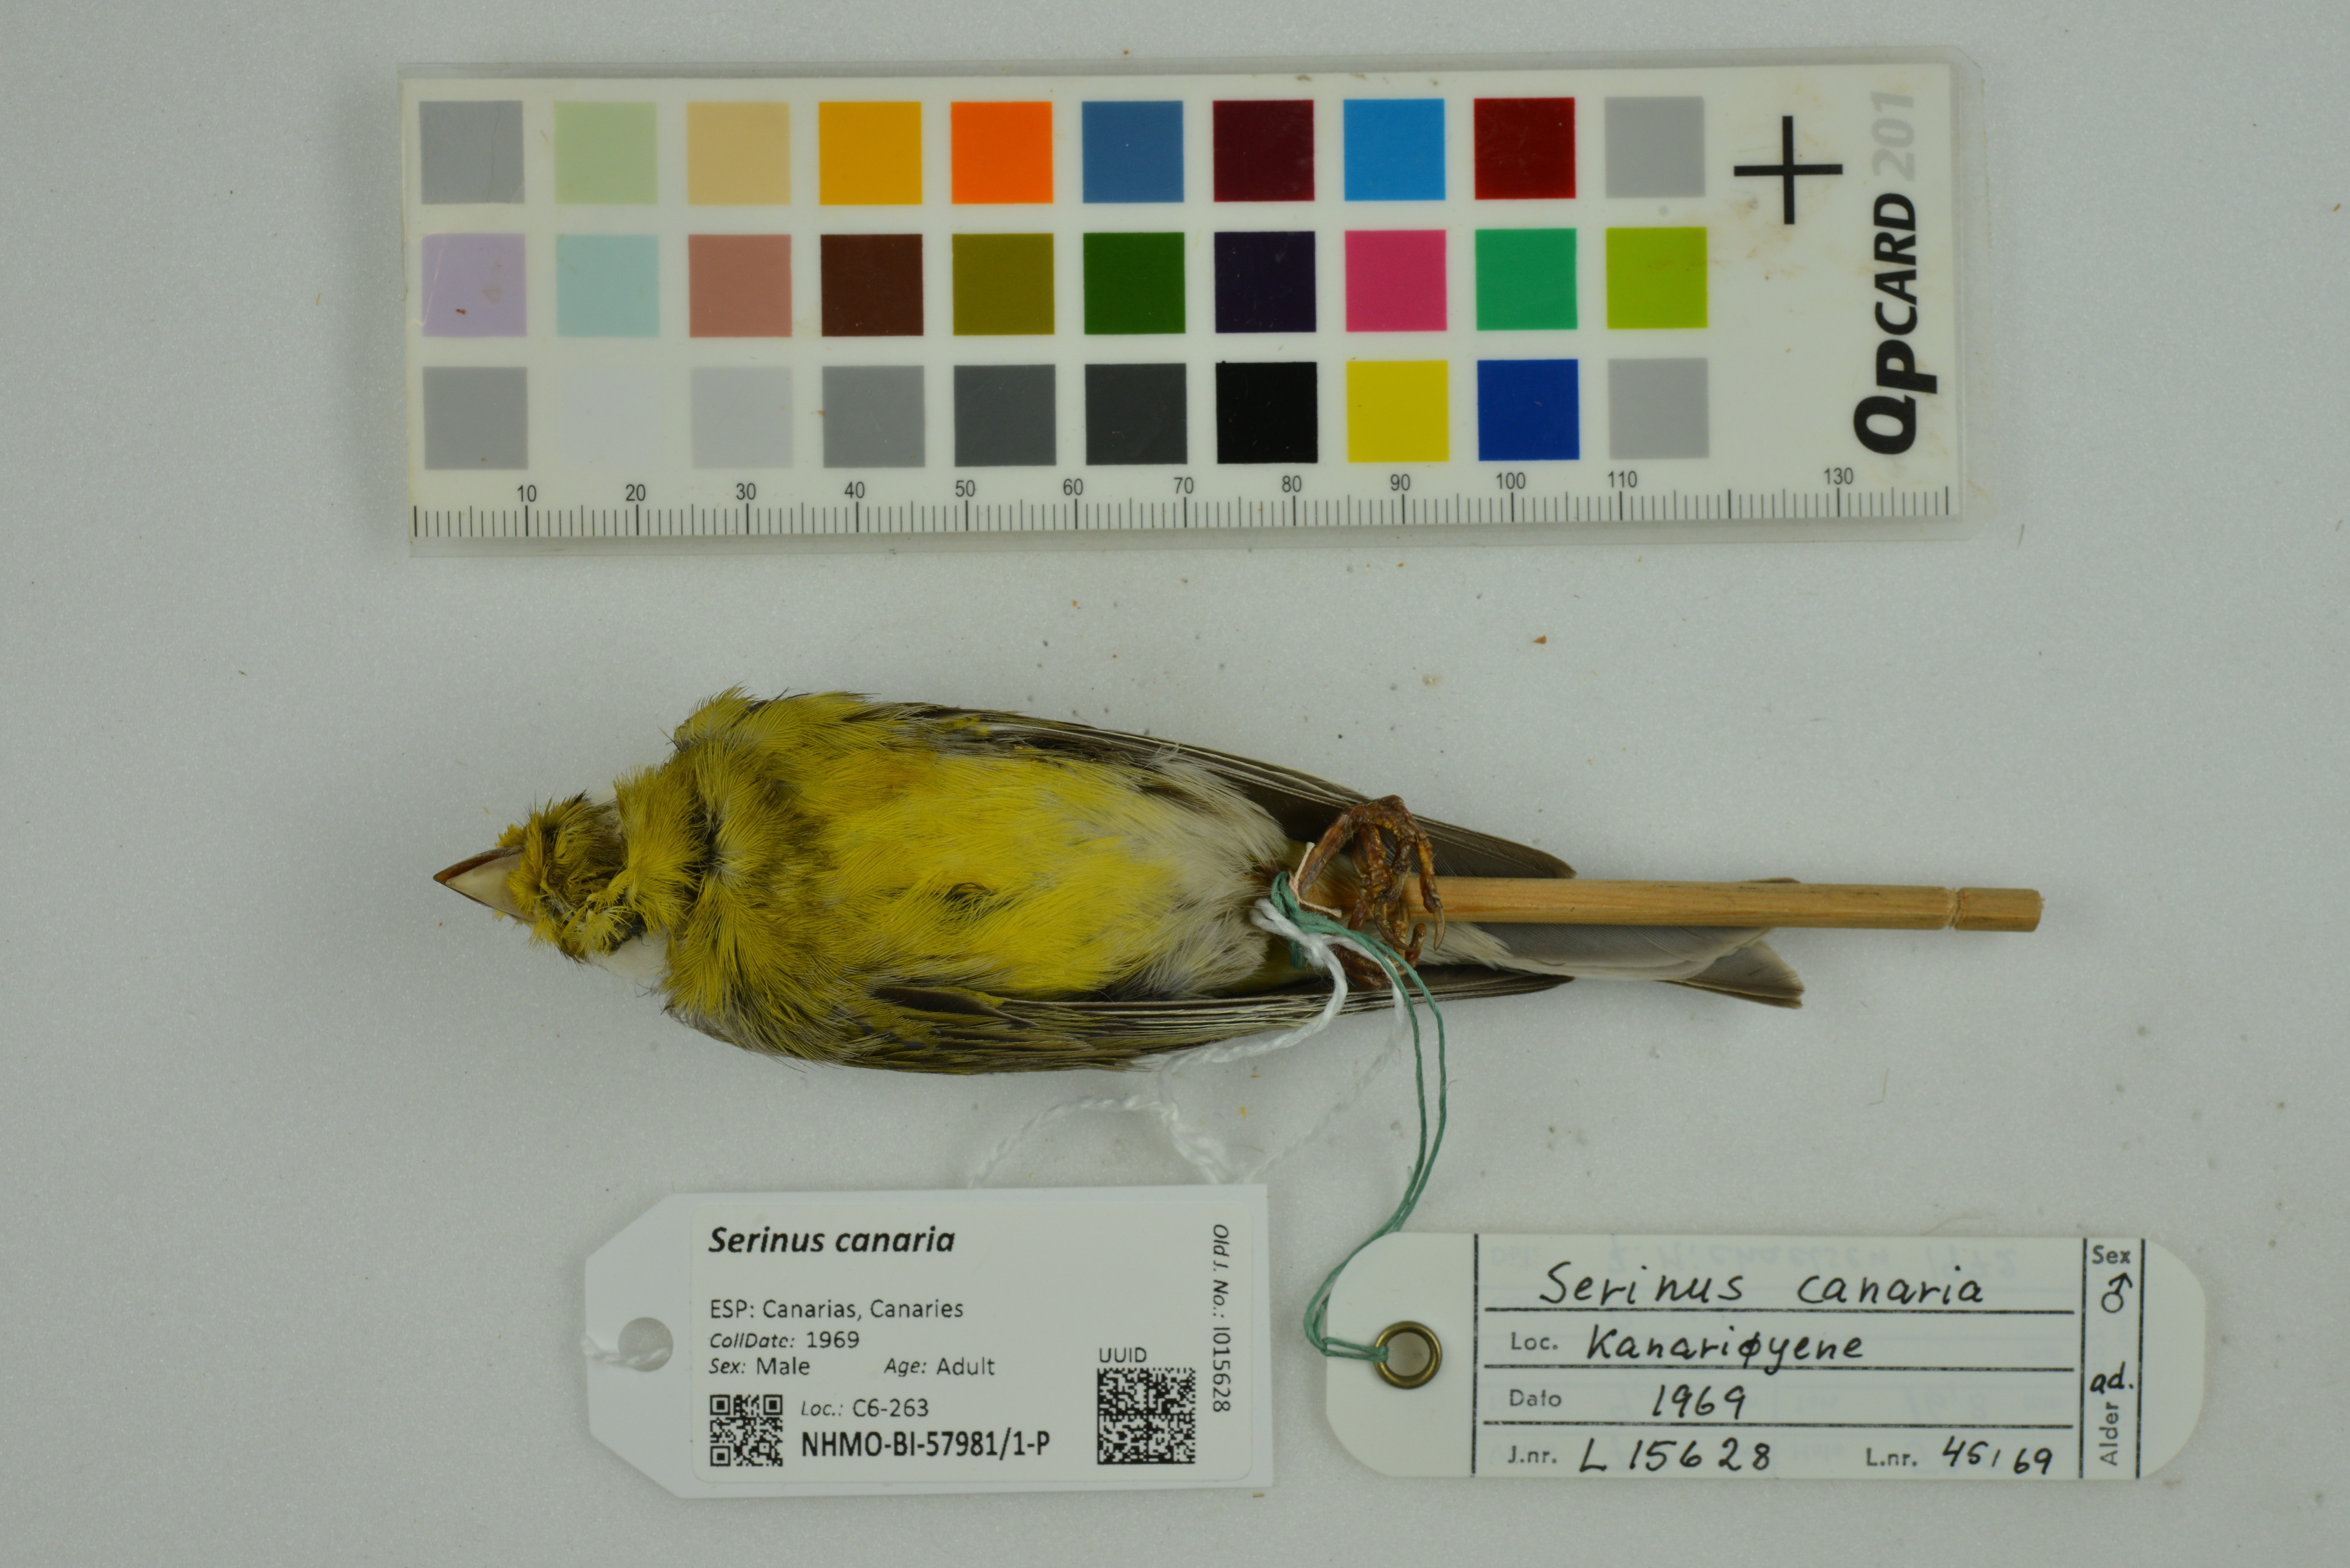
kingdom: Animalia
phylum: Chordata
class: Aves
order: Passeriformes
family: Fringillidae
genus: Serinus
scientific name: Serinus canaria
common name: Atlantic canary
